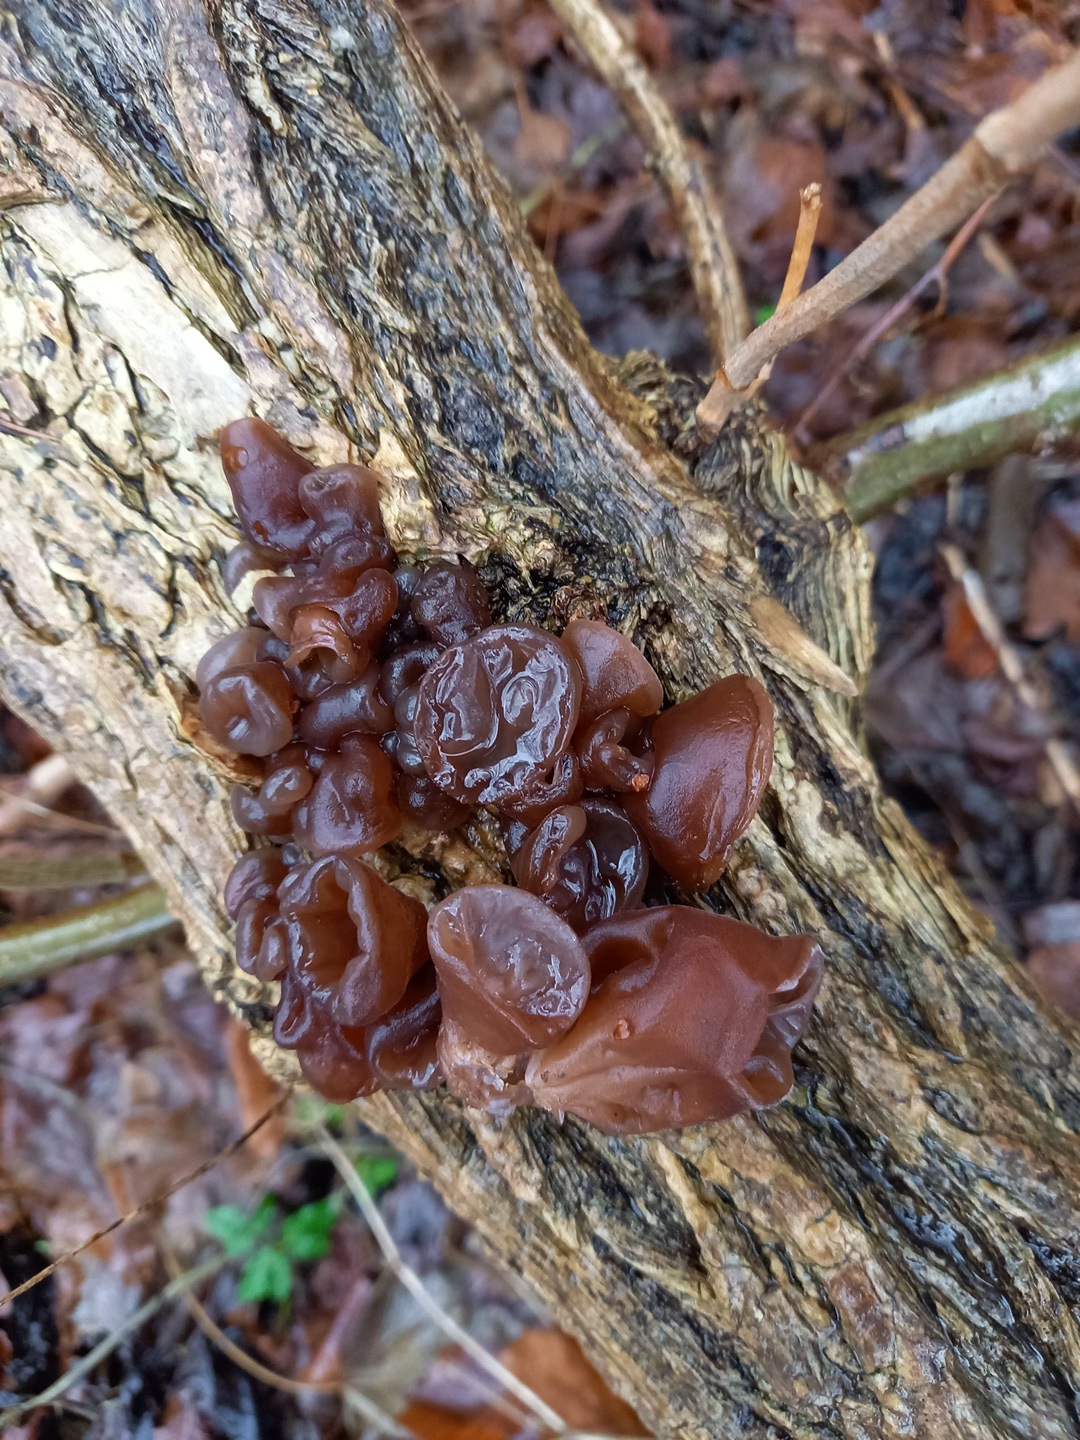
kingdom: Fungi
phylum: Basidiomycota
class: Agaricomycetes
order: Auriculariales
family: Auriculariaceae
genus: Auricularia
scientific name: Auricularia auricula-judae
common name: almindelig judasøre
